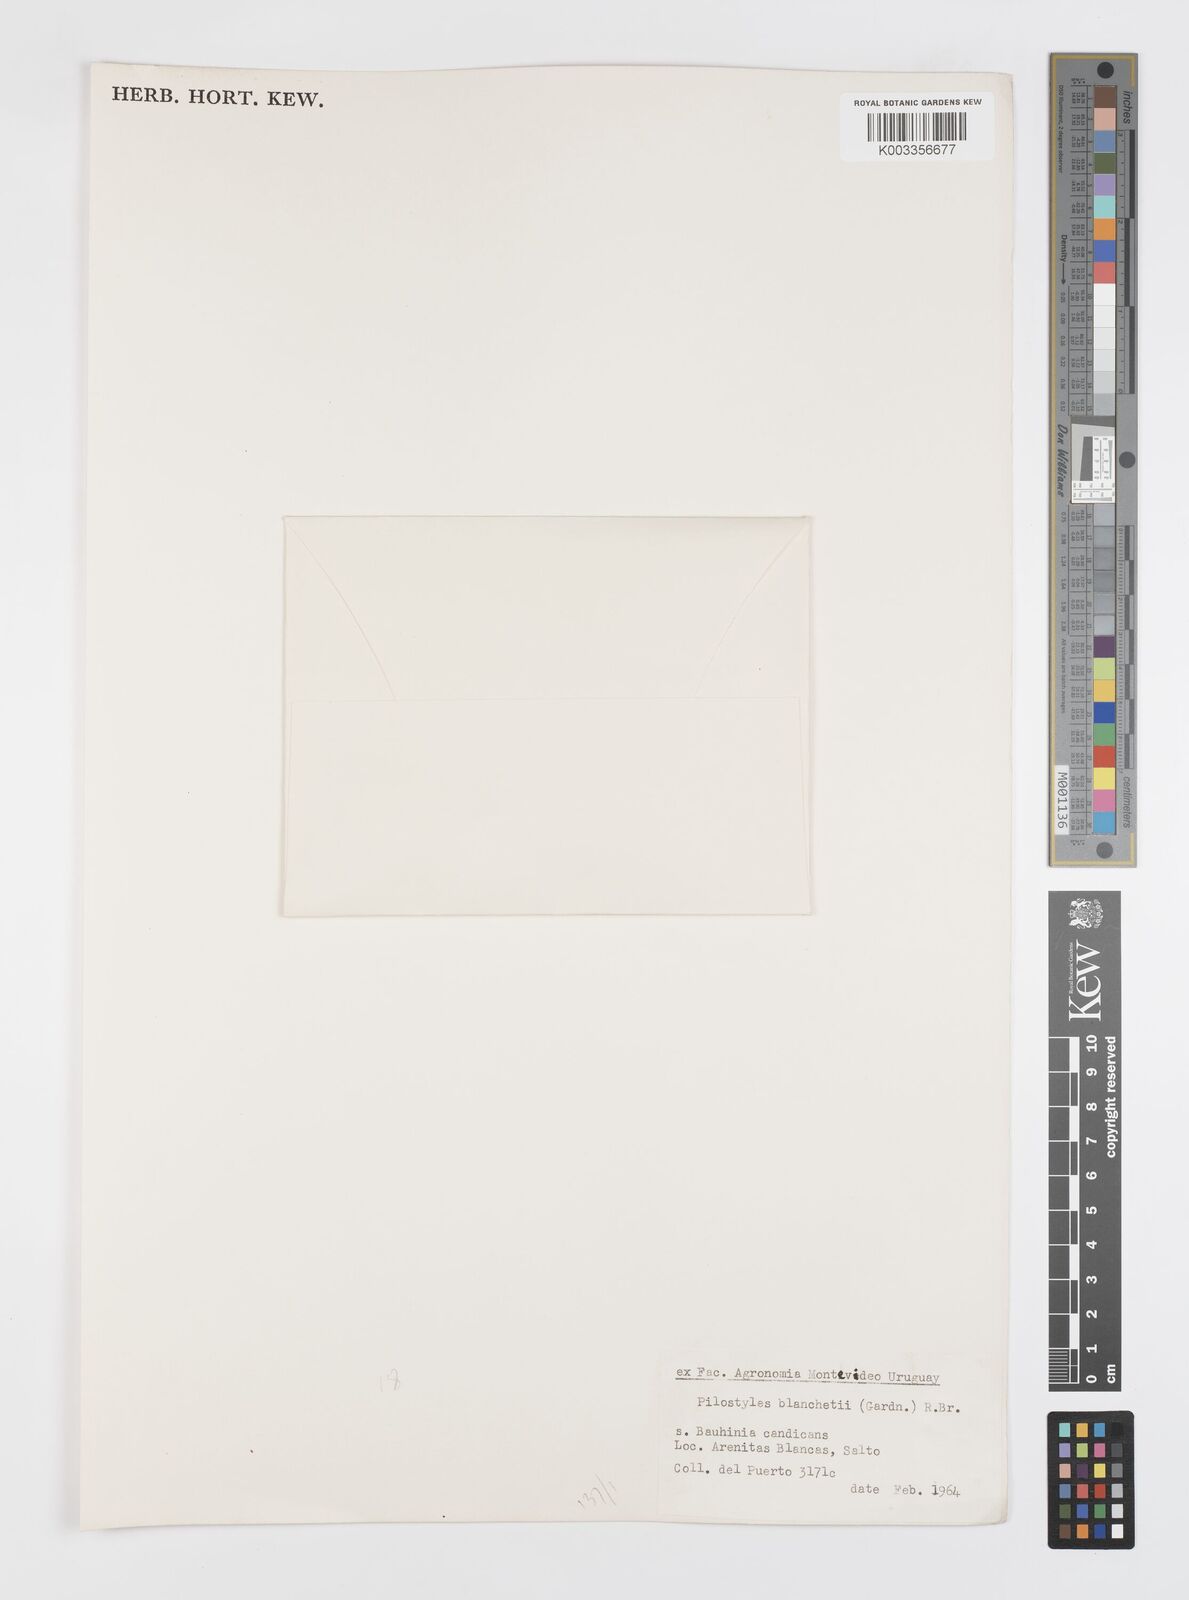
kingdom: Plantae
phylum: Tracheophyta
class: Magnoliopsida
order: Cucurbitales
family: Apodanthaceae
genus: Pilostyles
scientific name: Pilostyles blanchetii
